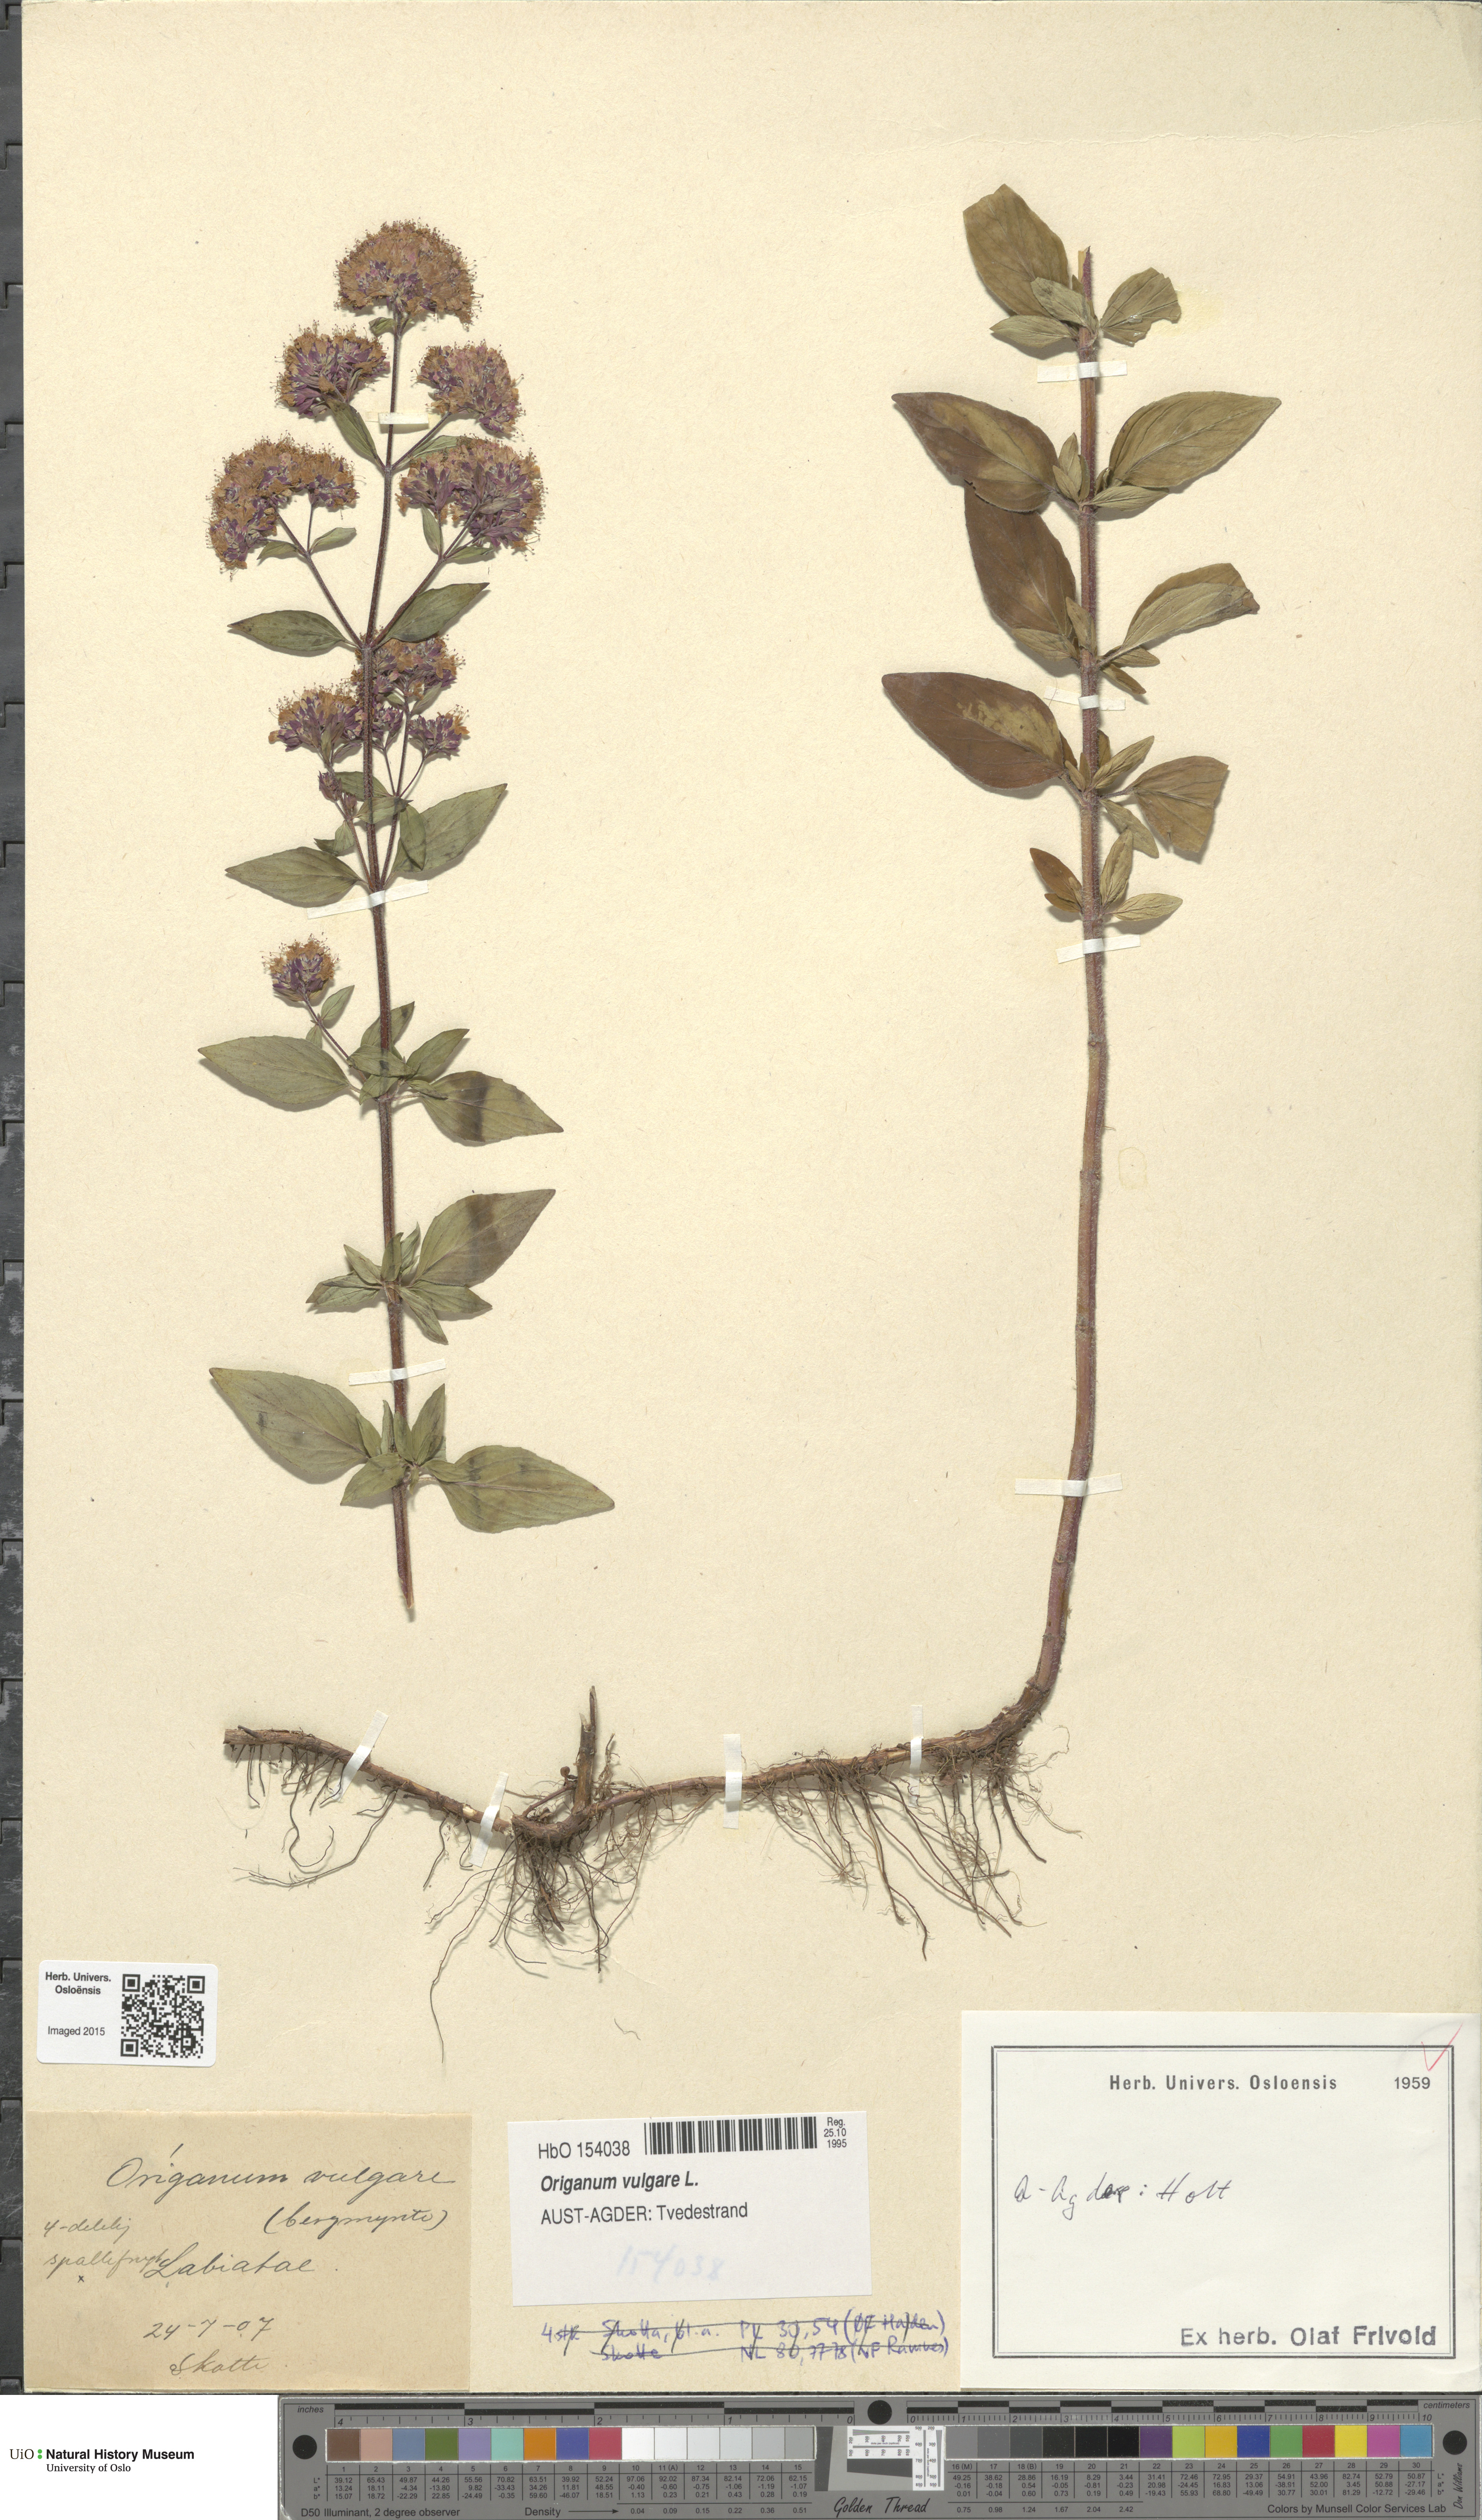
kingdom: Plantae
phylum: Tracheophyta
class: Magnoliopsida
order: Lamiales
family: Lamiaceae
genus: Origanum
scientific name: Origanum vulgare
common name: Wild marjoram
